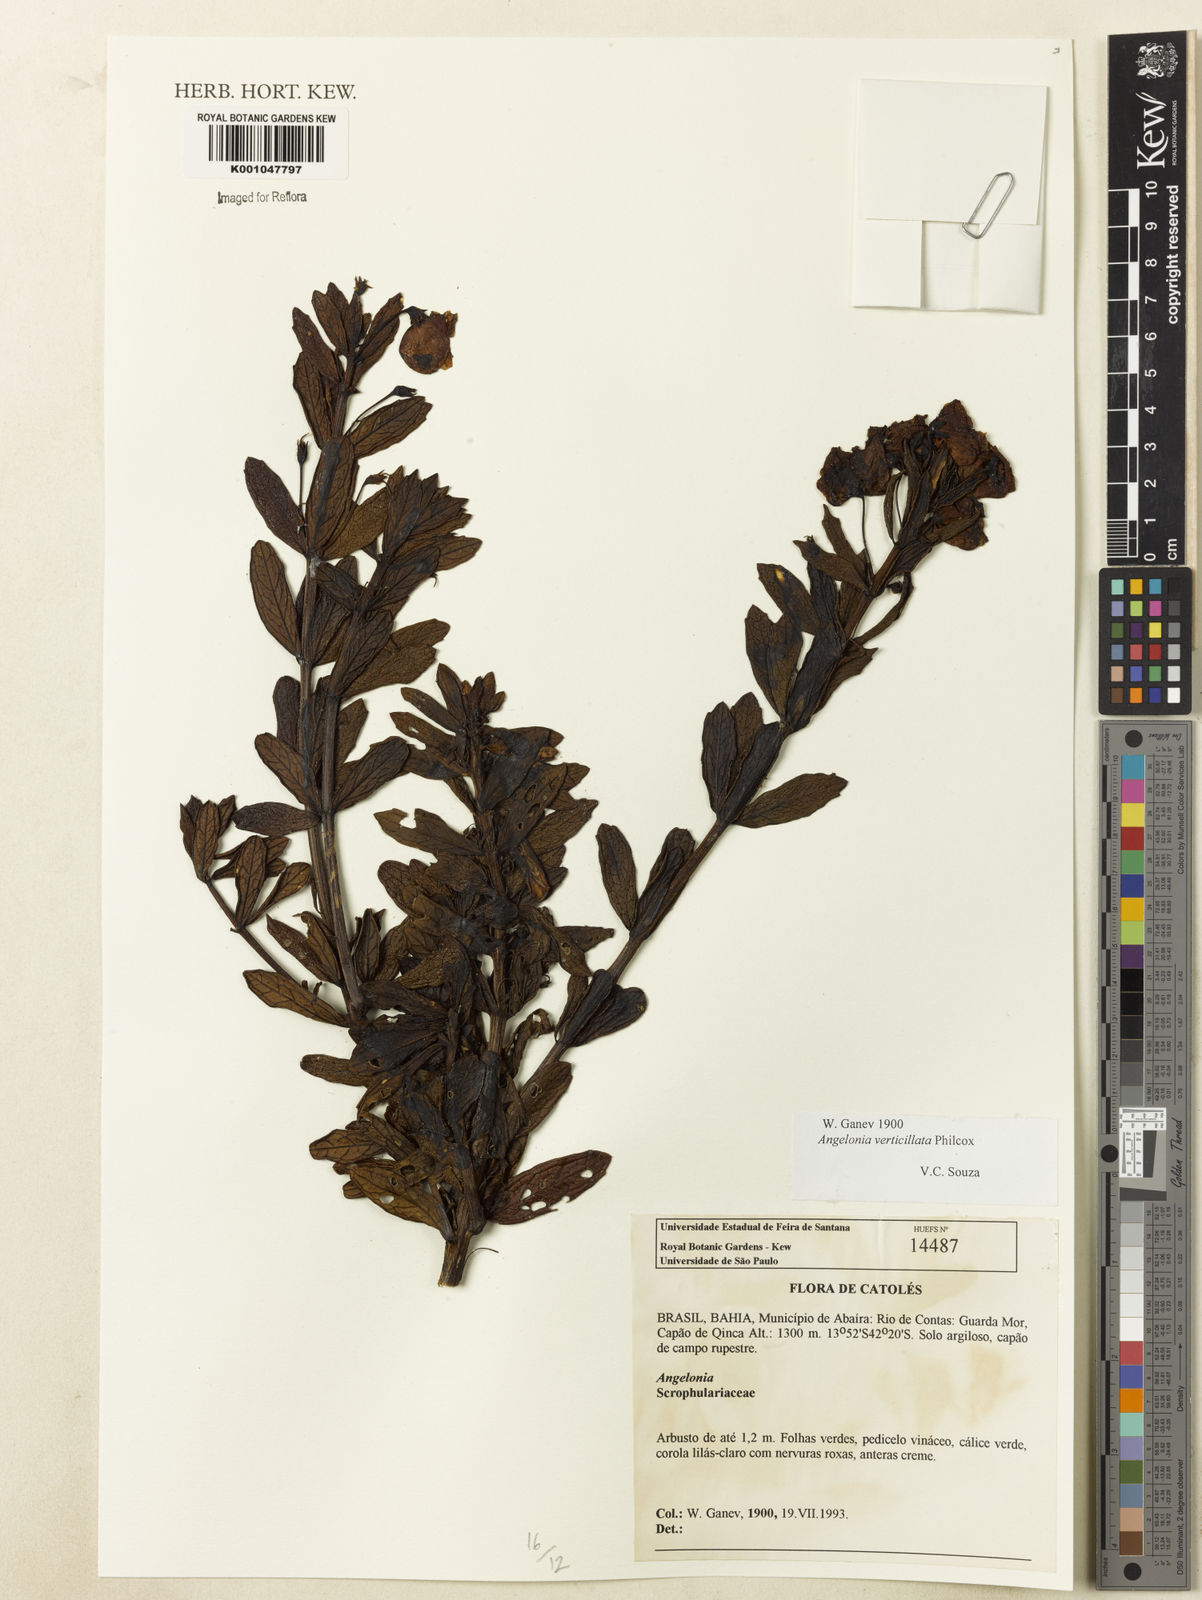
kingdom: Plantae
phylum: Tracheophyta
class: Magnoliopsida
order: Lamiales
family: Plantaginaceae
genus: Angelonia
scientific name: Angelonia verticillata
